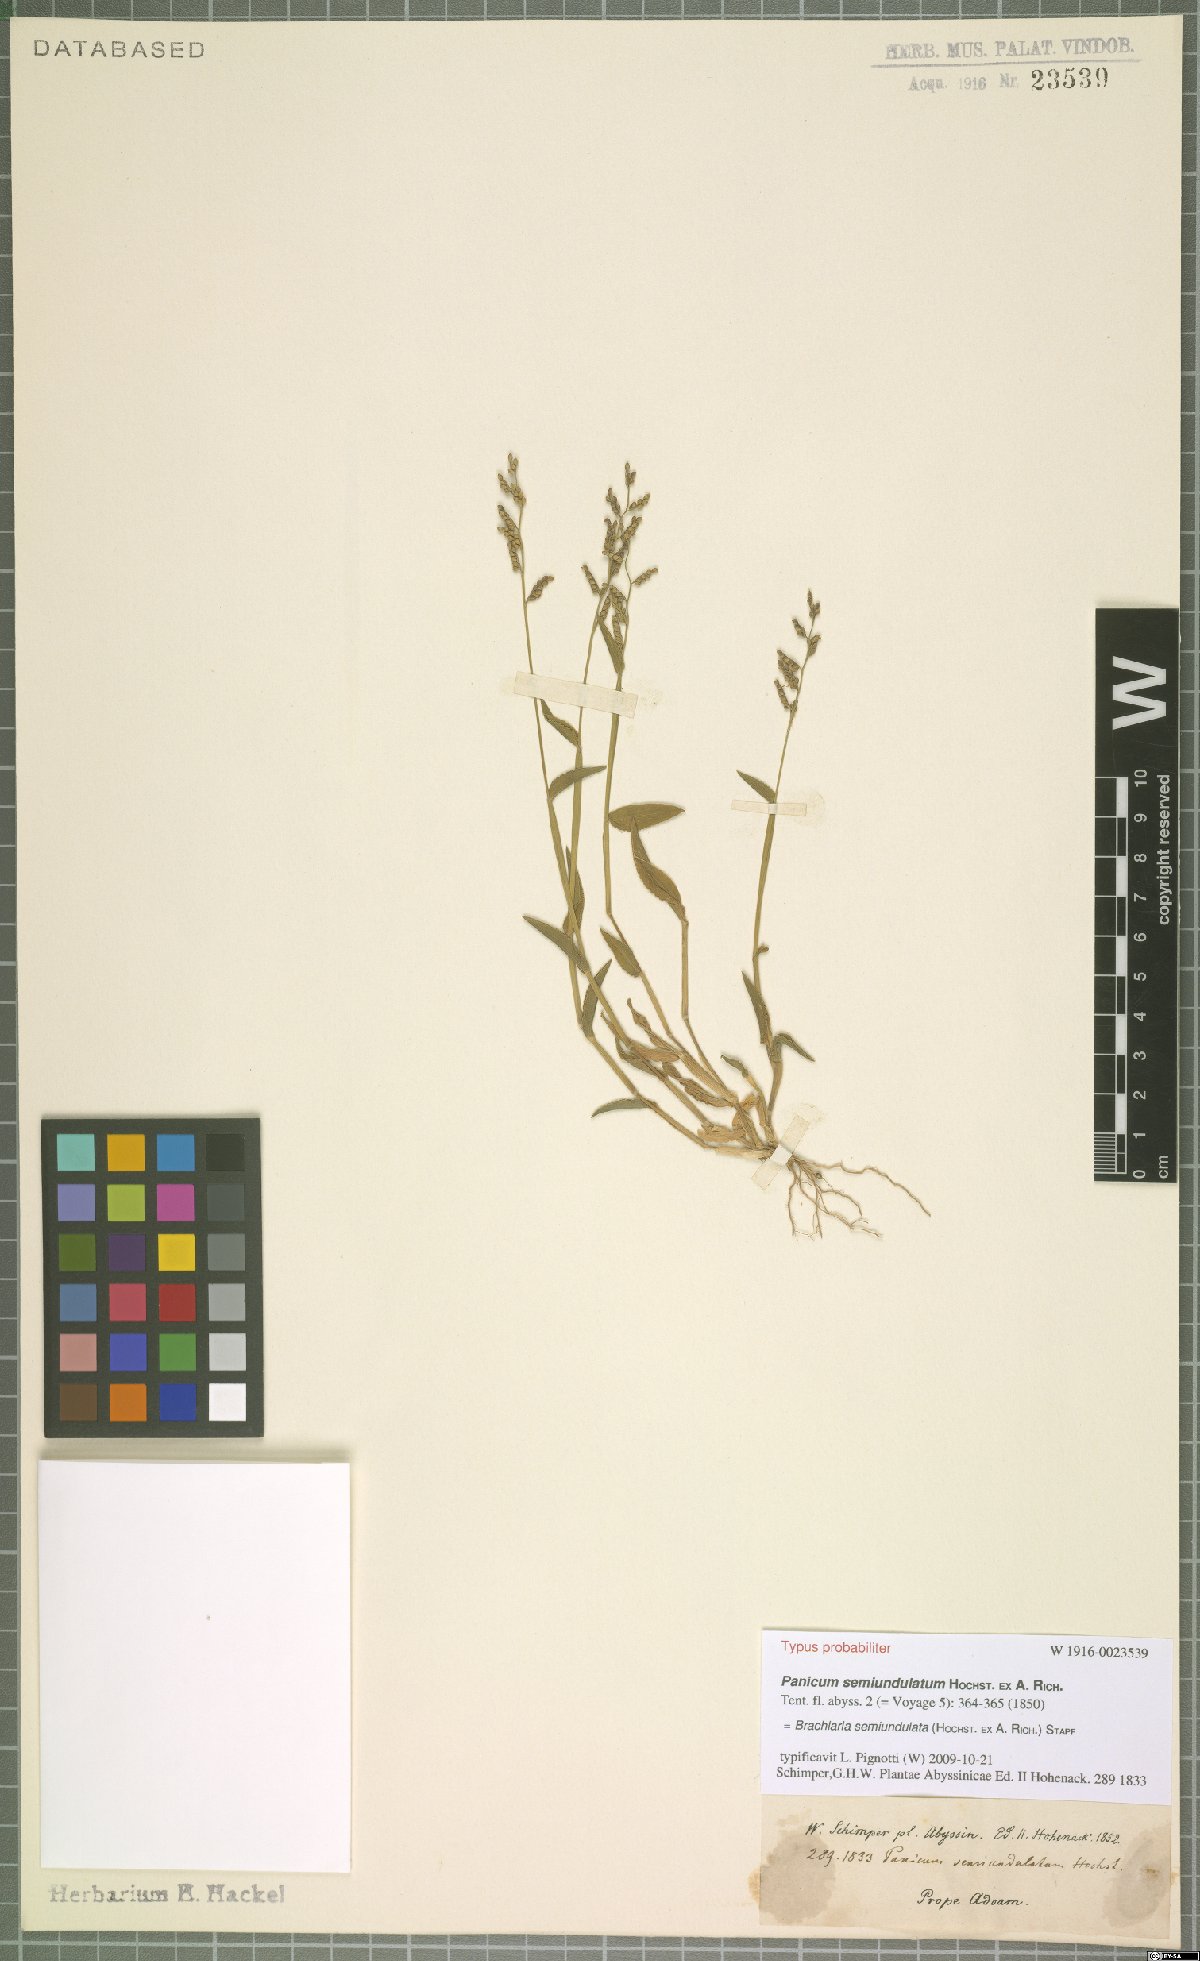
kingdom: Plantae
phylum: Tracheophyta
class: Liliopsida
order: Poales
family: Poaceae
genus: Urochloa
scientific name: Urochloa semiundulata
